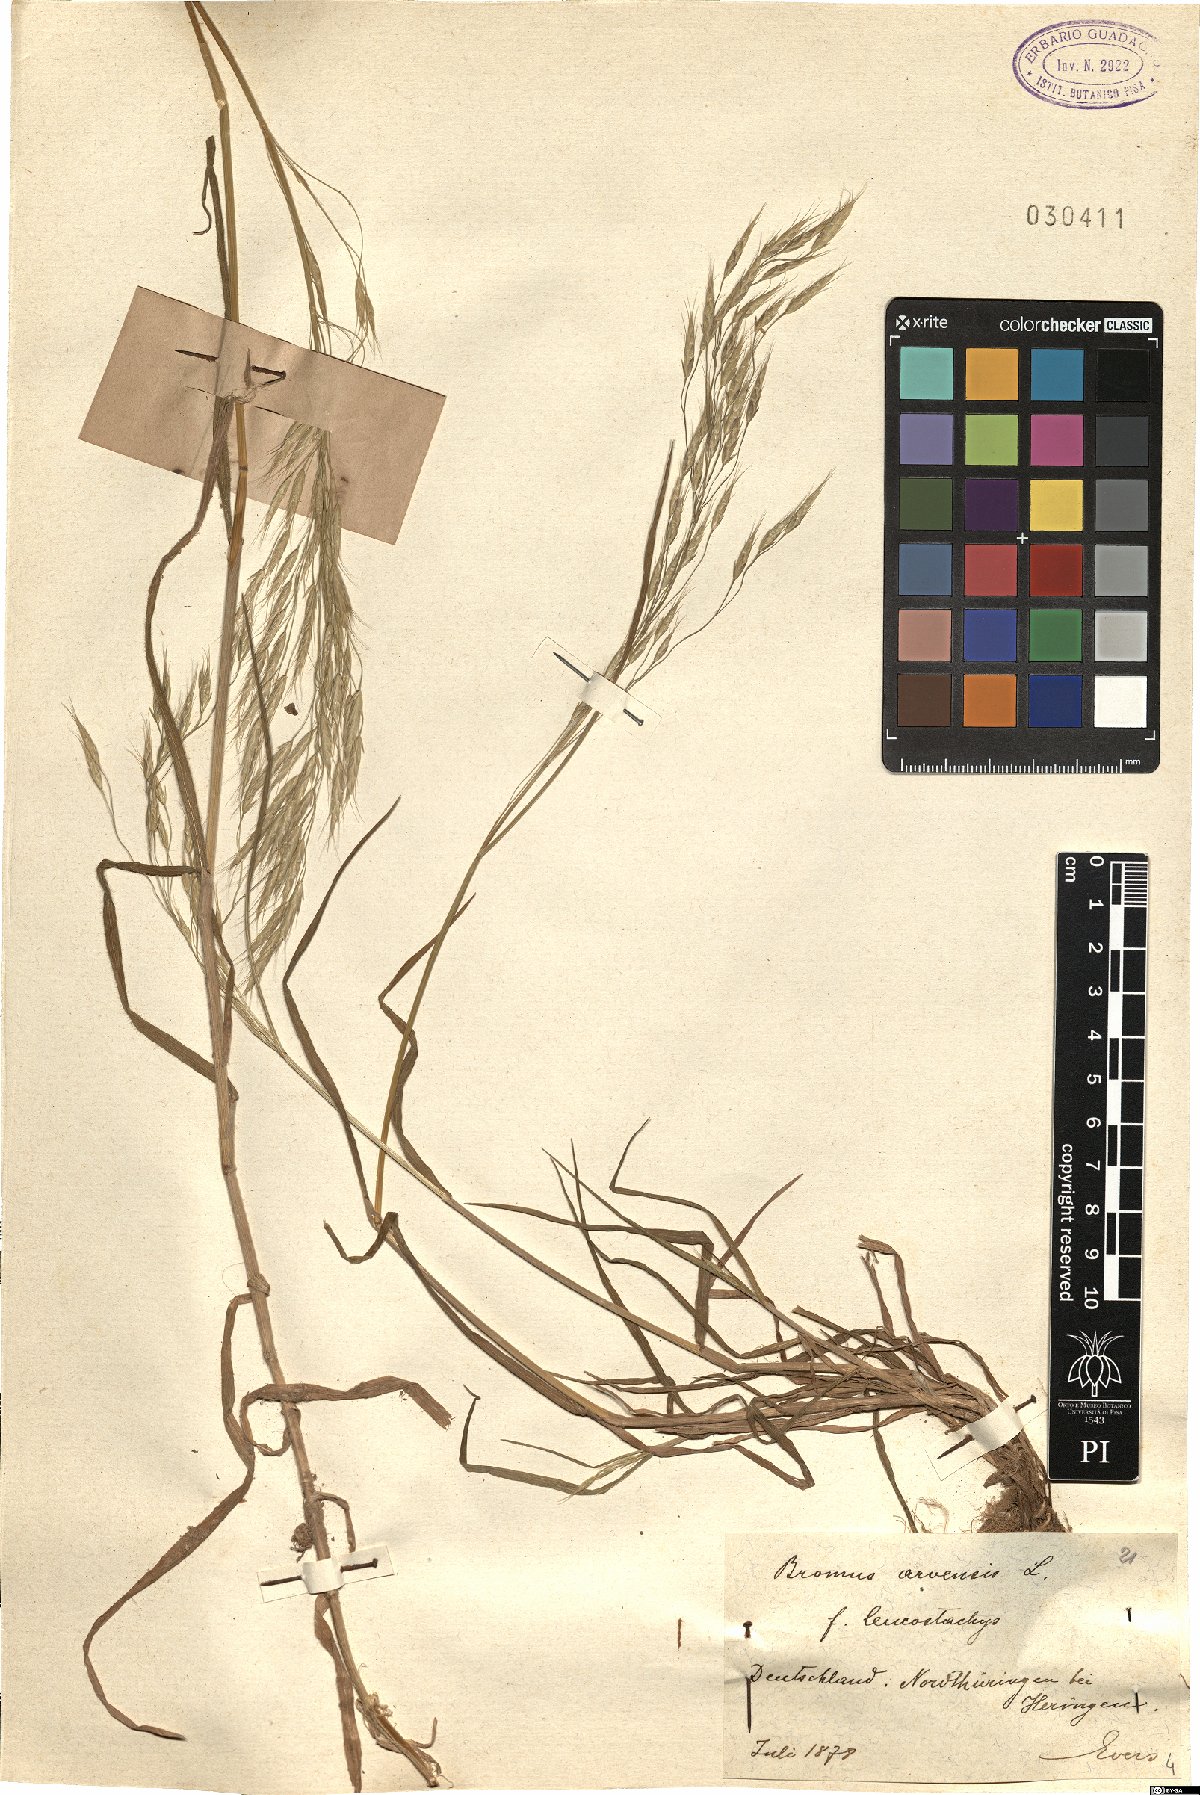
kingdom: Plantae
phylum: Tracheophyta
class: Liliopsida
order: Poales
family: Poaceae
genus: Bromus
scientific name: Bromus arvensis
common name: Field brome
